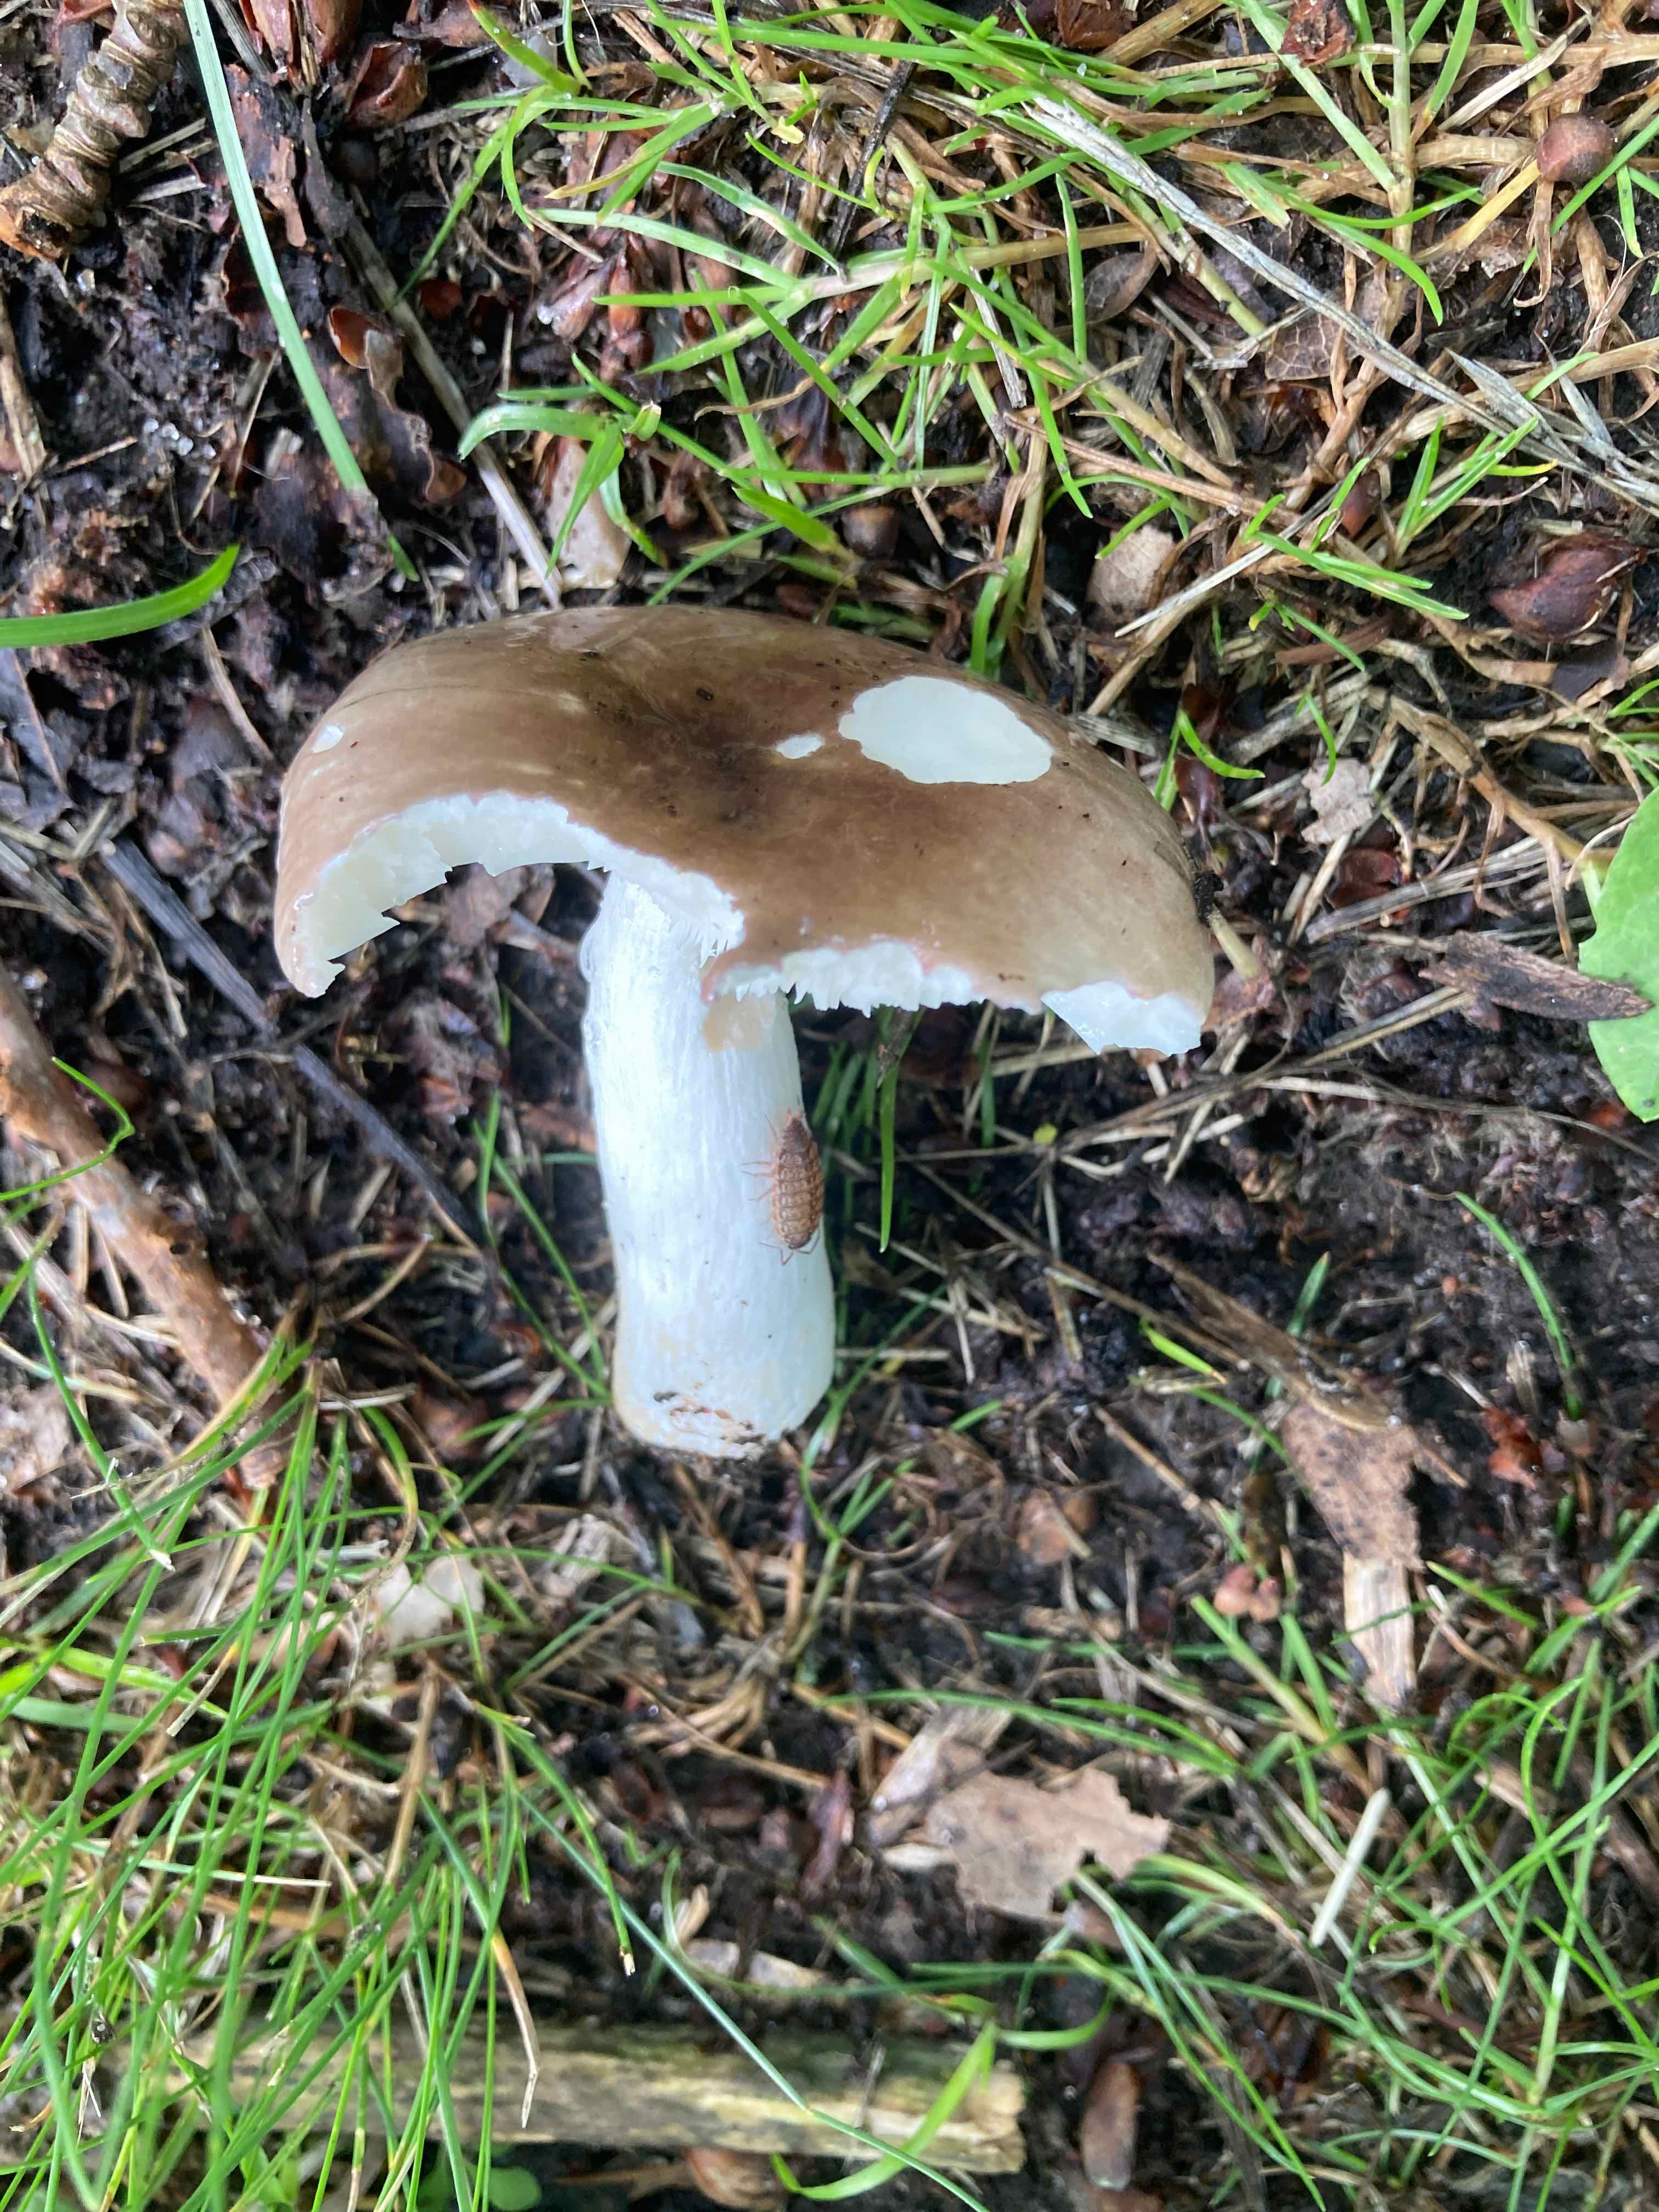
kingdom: Fungi
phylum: Basidiomycota
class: Agaricomycetes
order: Russulales
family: Russulaceae
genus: Russula
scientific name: Russula pelargonia
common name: pelargonie-skørhat
